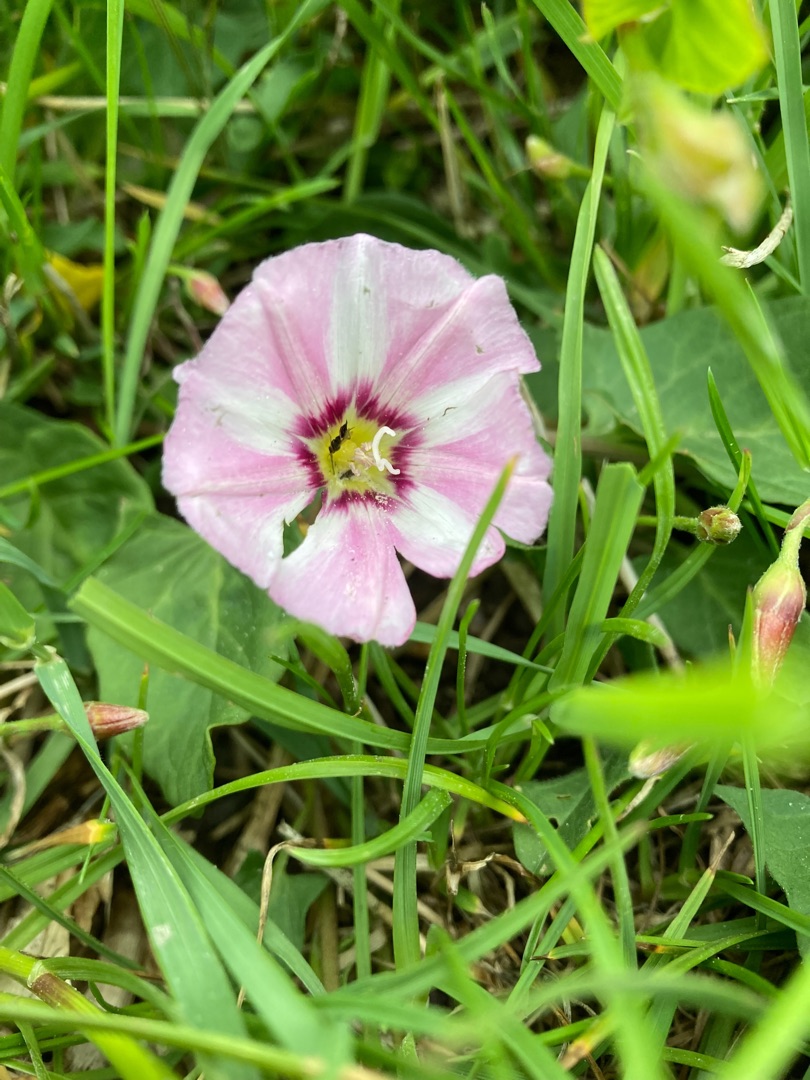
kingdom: Plantae
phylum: Tracheophyta
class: Magnoliopsida
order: Solanales
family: Convolvulaceae
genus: Convolvulus
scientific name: Convolvulus arvensis
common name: Ager-snerle
